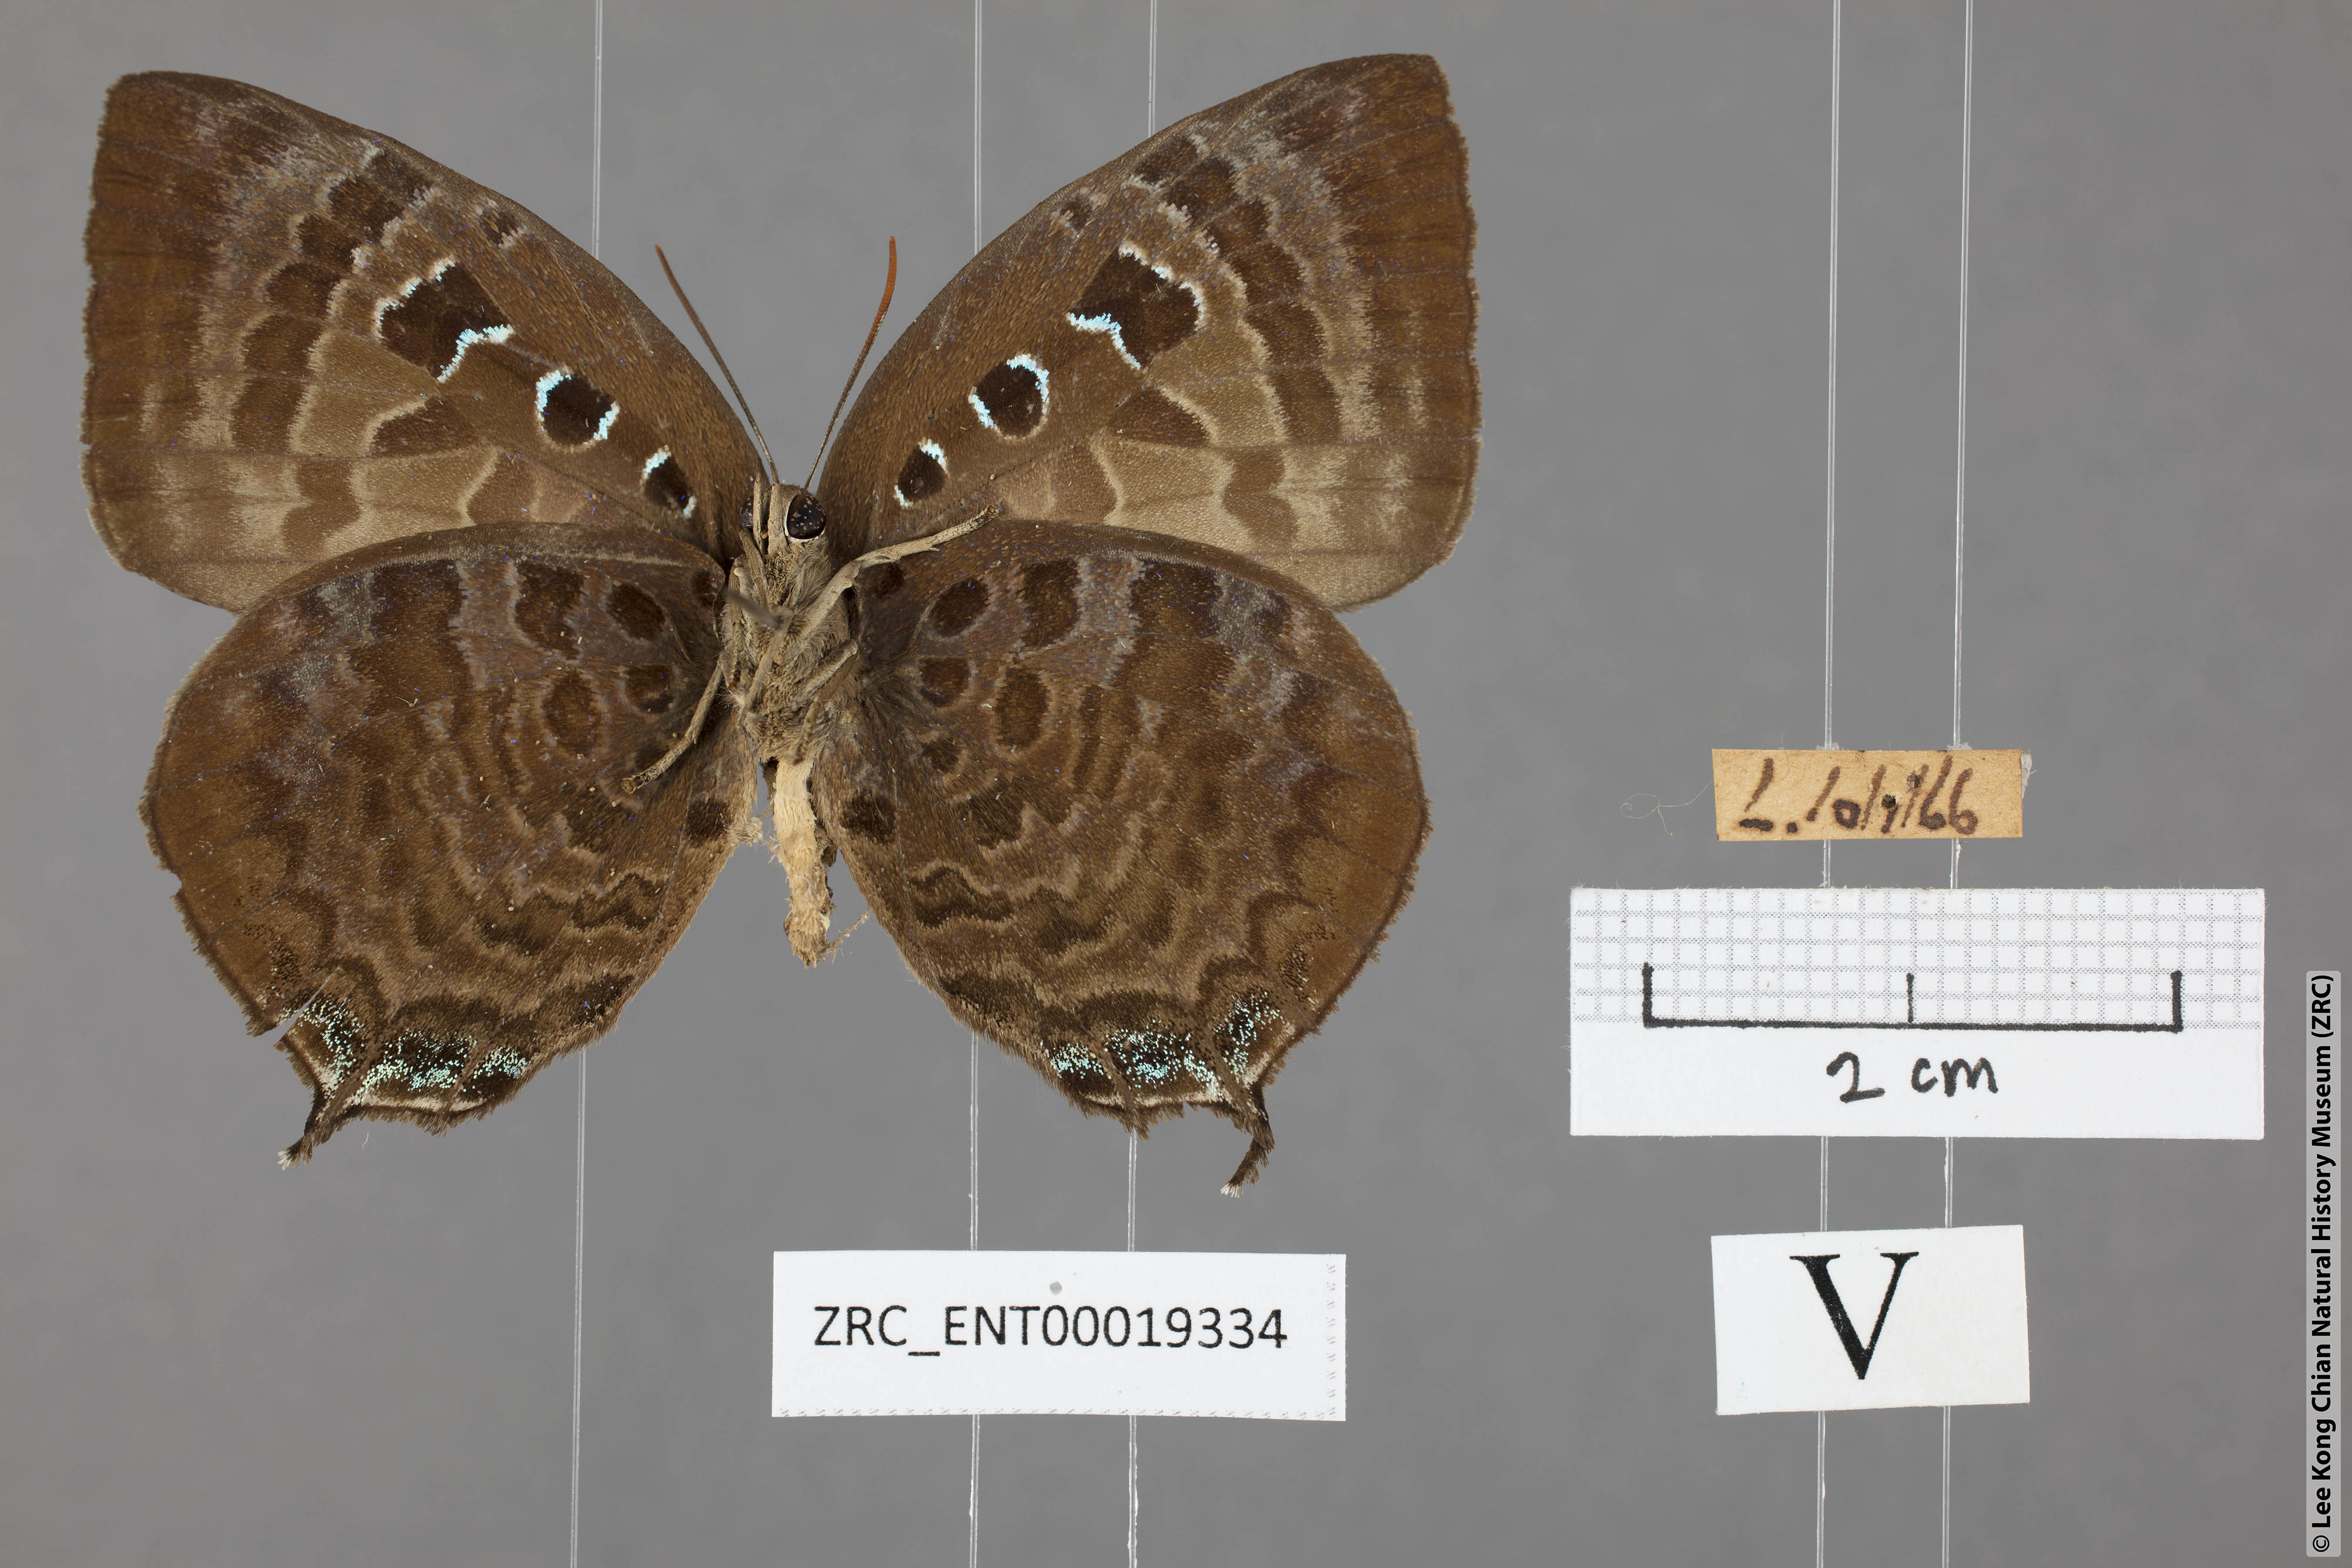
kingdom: Animalia
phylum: Arthropoda
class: Insecta
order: Lepidoptera
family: Lycaenidae
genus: Arhopala
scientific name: Arhopala centaurus
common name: Dull oak-blue
